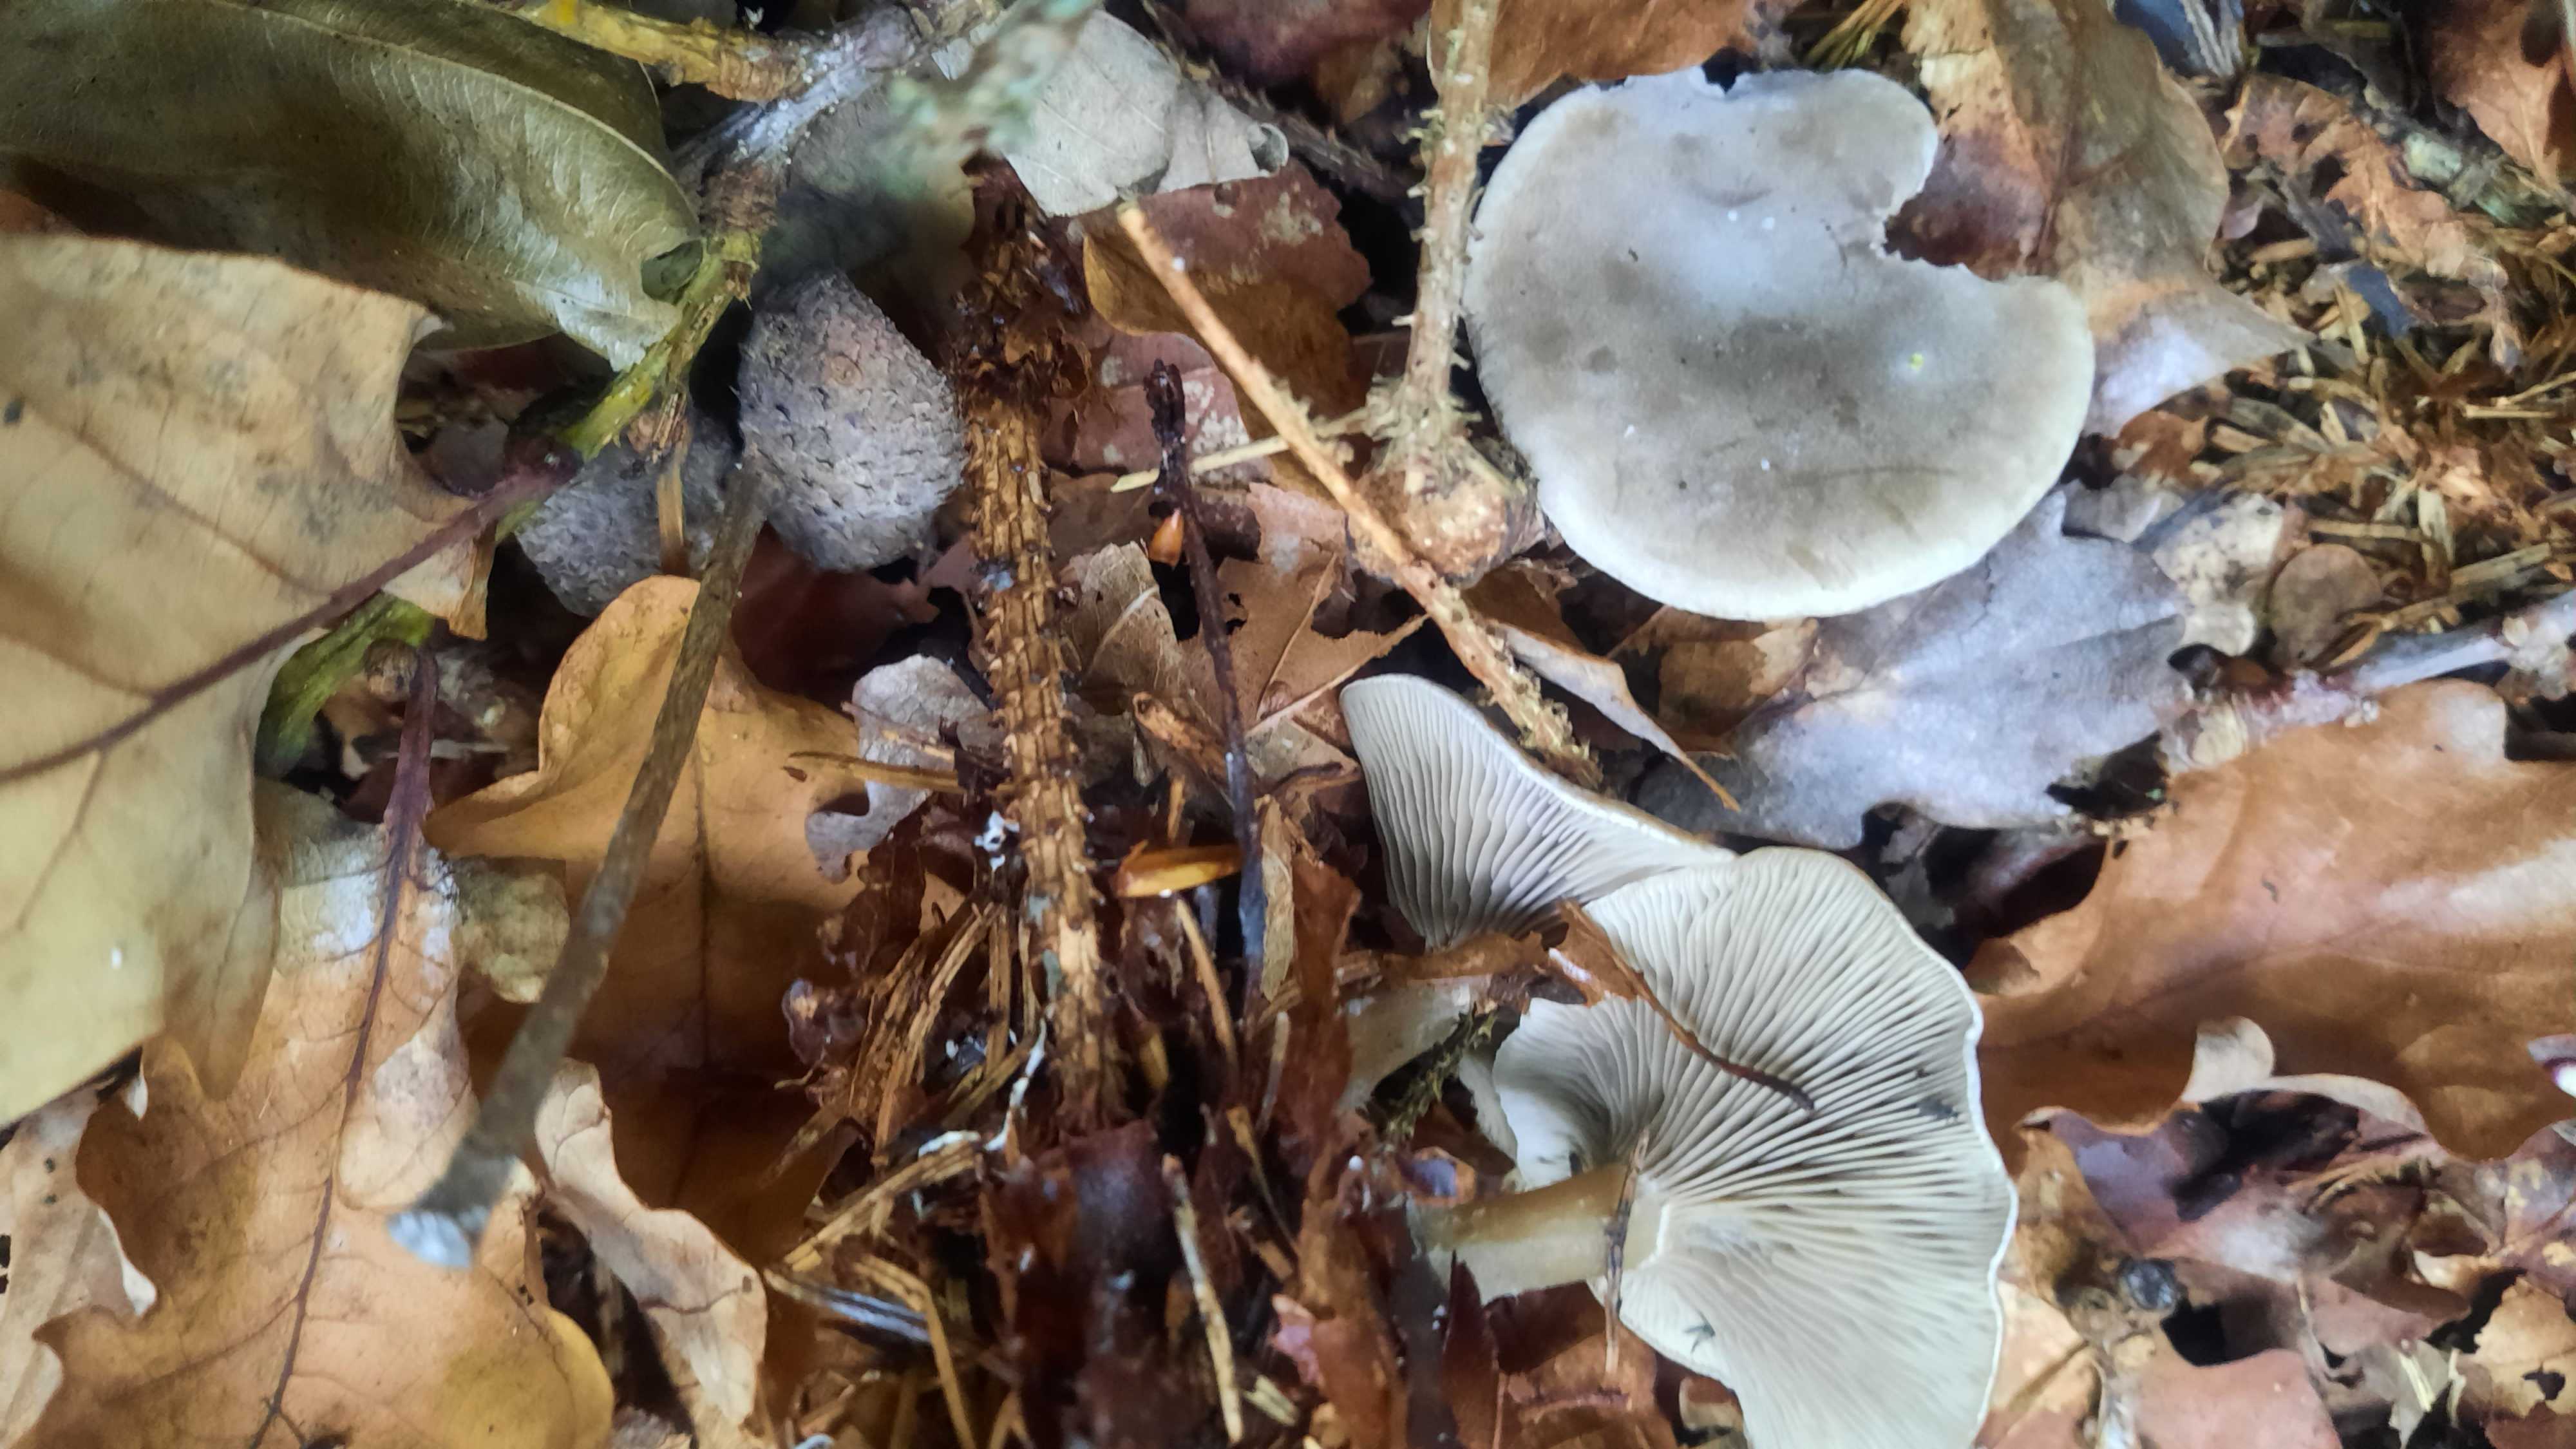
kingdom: Fungi
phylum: Basidiomycota
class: Agaricomycetes
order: Agaricales
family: Tricholomataceae
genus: Clitocybe
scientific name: Clitocybe
